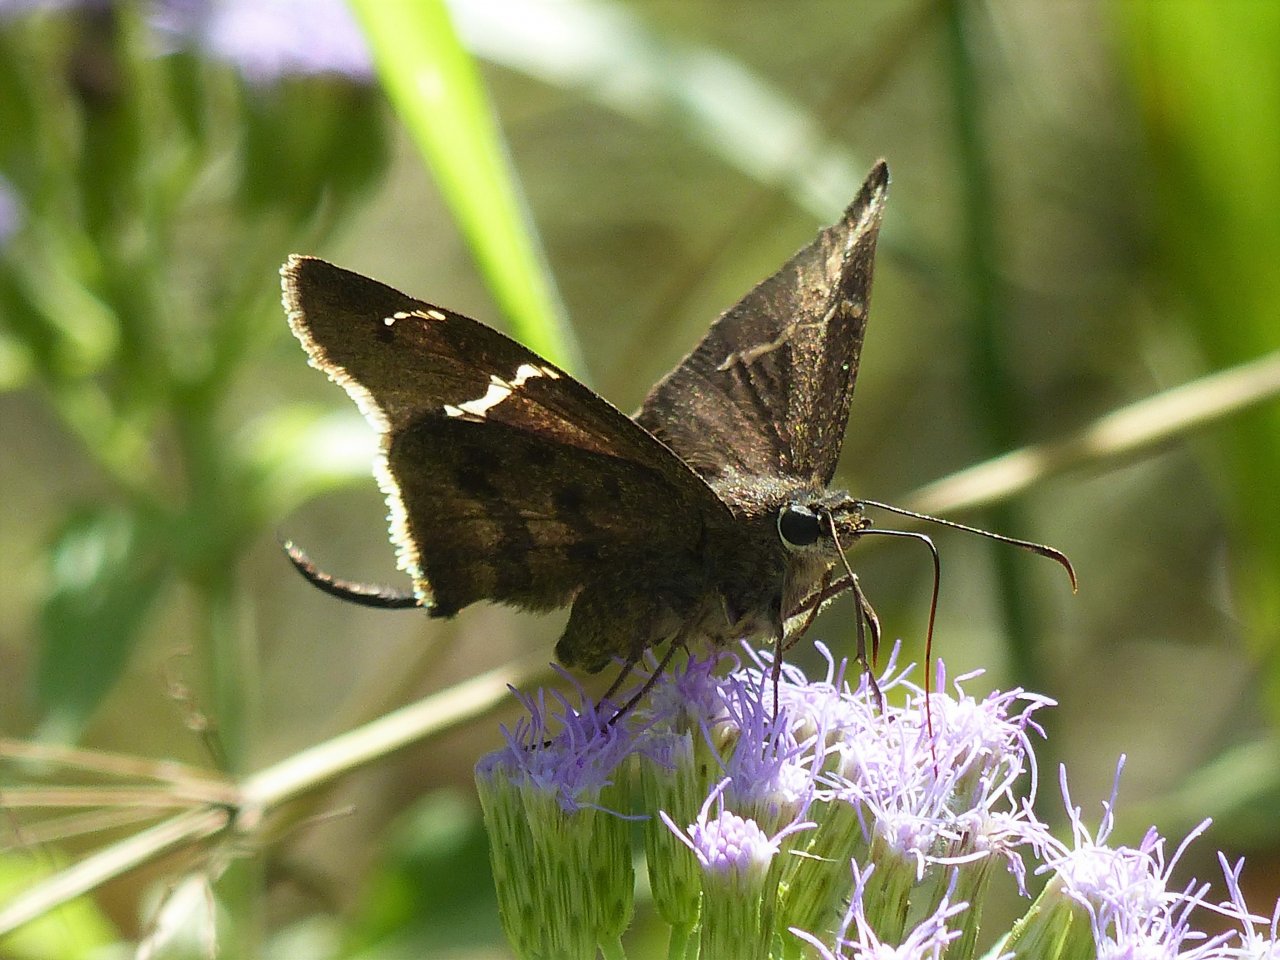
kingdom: Animalia
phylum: Arthropoda
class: Insecta
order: Lepidoptera
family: Hesperiidae
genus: Urbanus
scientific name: Urbanus procne
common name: Brown Longtail
